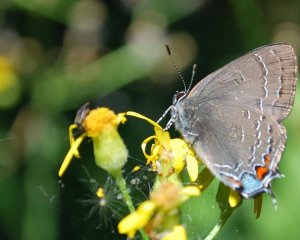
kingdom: Animalia
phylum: Arthropoda
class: Insecta
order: Lepidoptera
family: Lycaenidae
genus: Satyrium
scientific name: Satyrium calanus
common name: Banded Hairstreak
